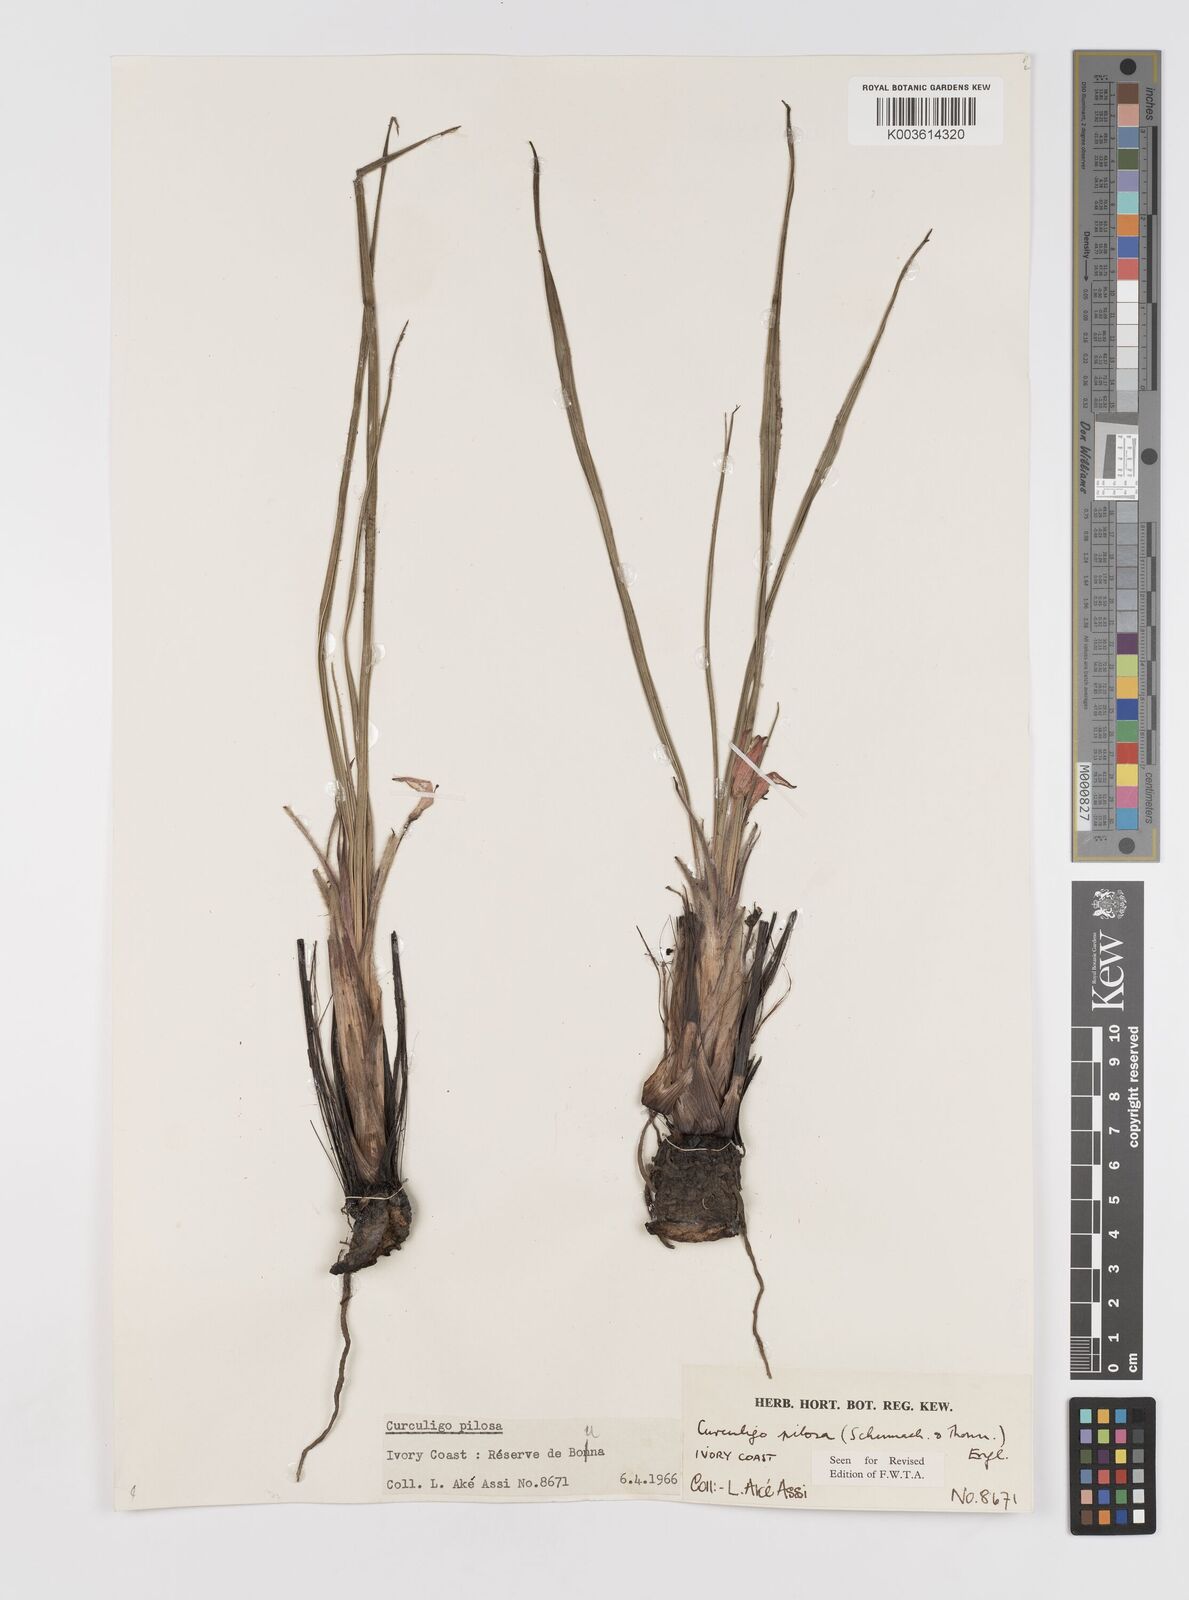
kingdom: Plantae
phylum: Tracheophyta
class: Liliopsida
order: Asparagales
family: Hypoxidaceae
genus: Curculigo
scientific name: Curculigo pilosa
